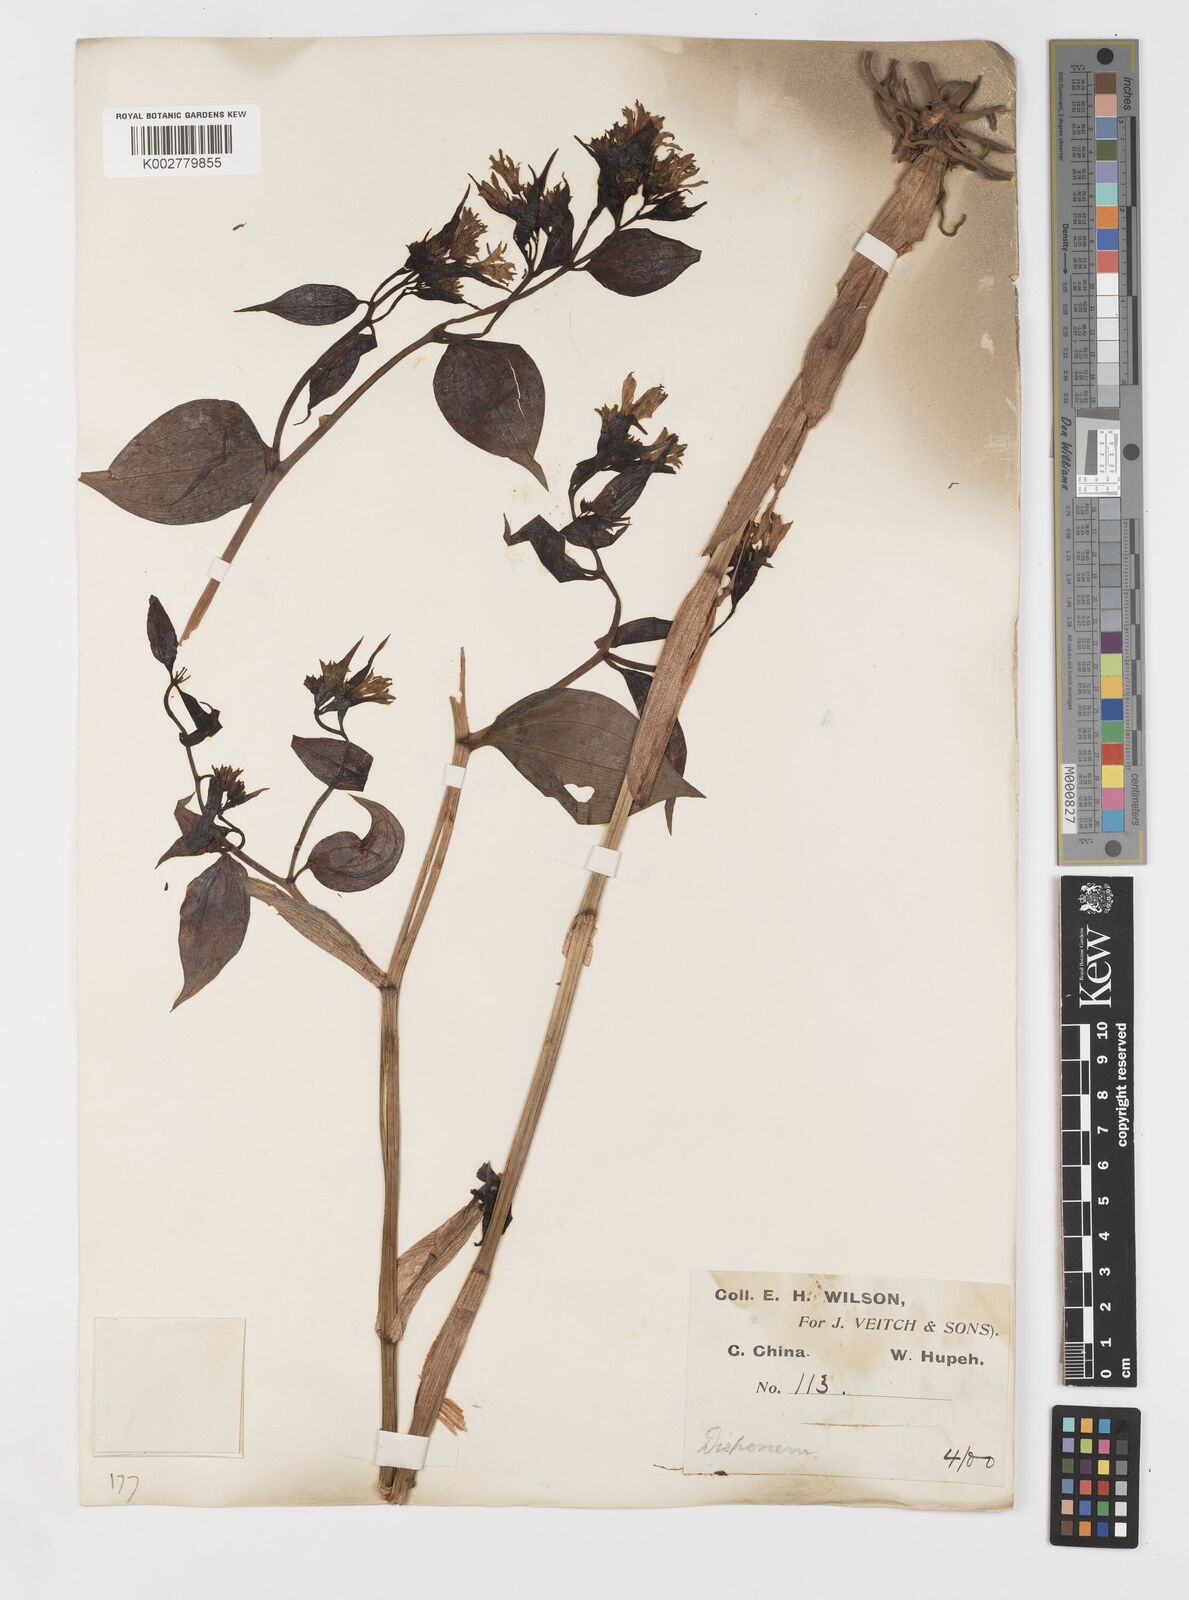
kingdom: Plantae
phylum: Tracheophyta
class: Liliopsida
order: Liliales
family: Colchicaceae
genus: Disporum
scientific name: Disporum sessile
